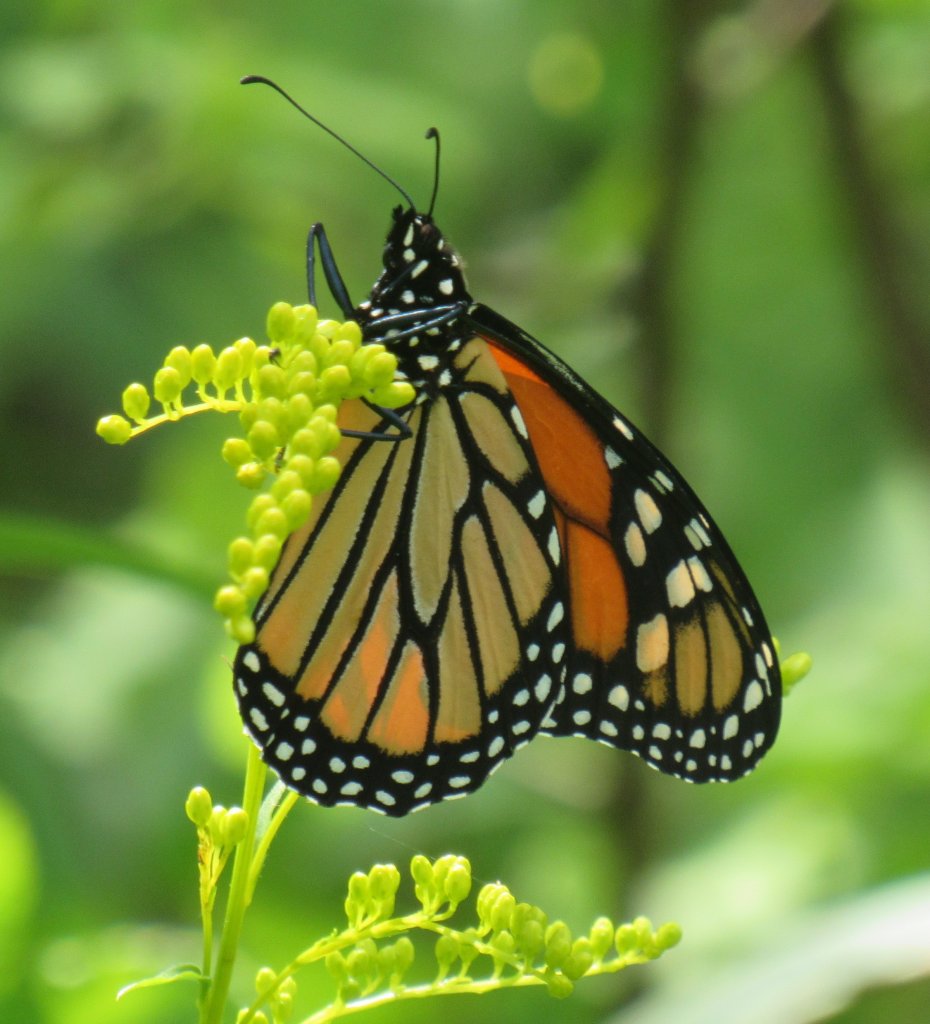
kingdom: Animalia
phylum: Arthropoda
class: Insecta
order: Lepidoptera
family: Nymphalidae
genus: Danaus
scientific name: Danaus plexippus
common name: Monarch
